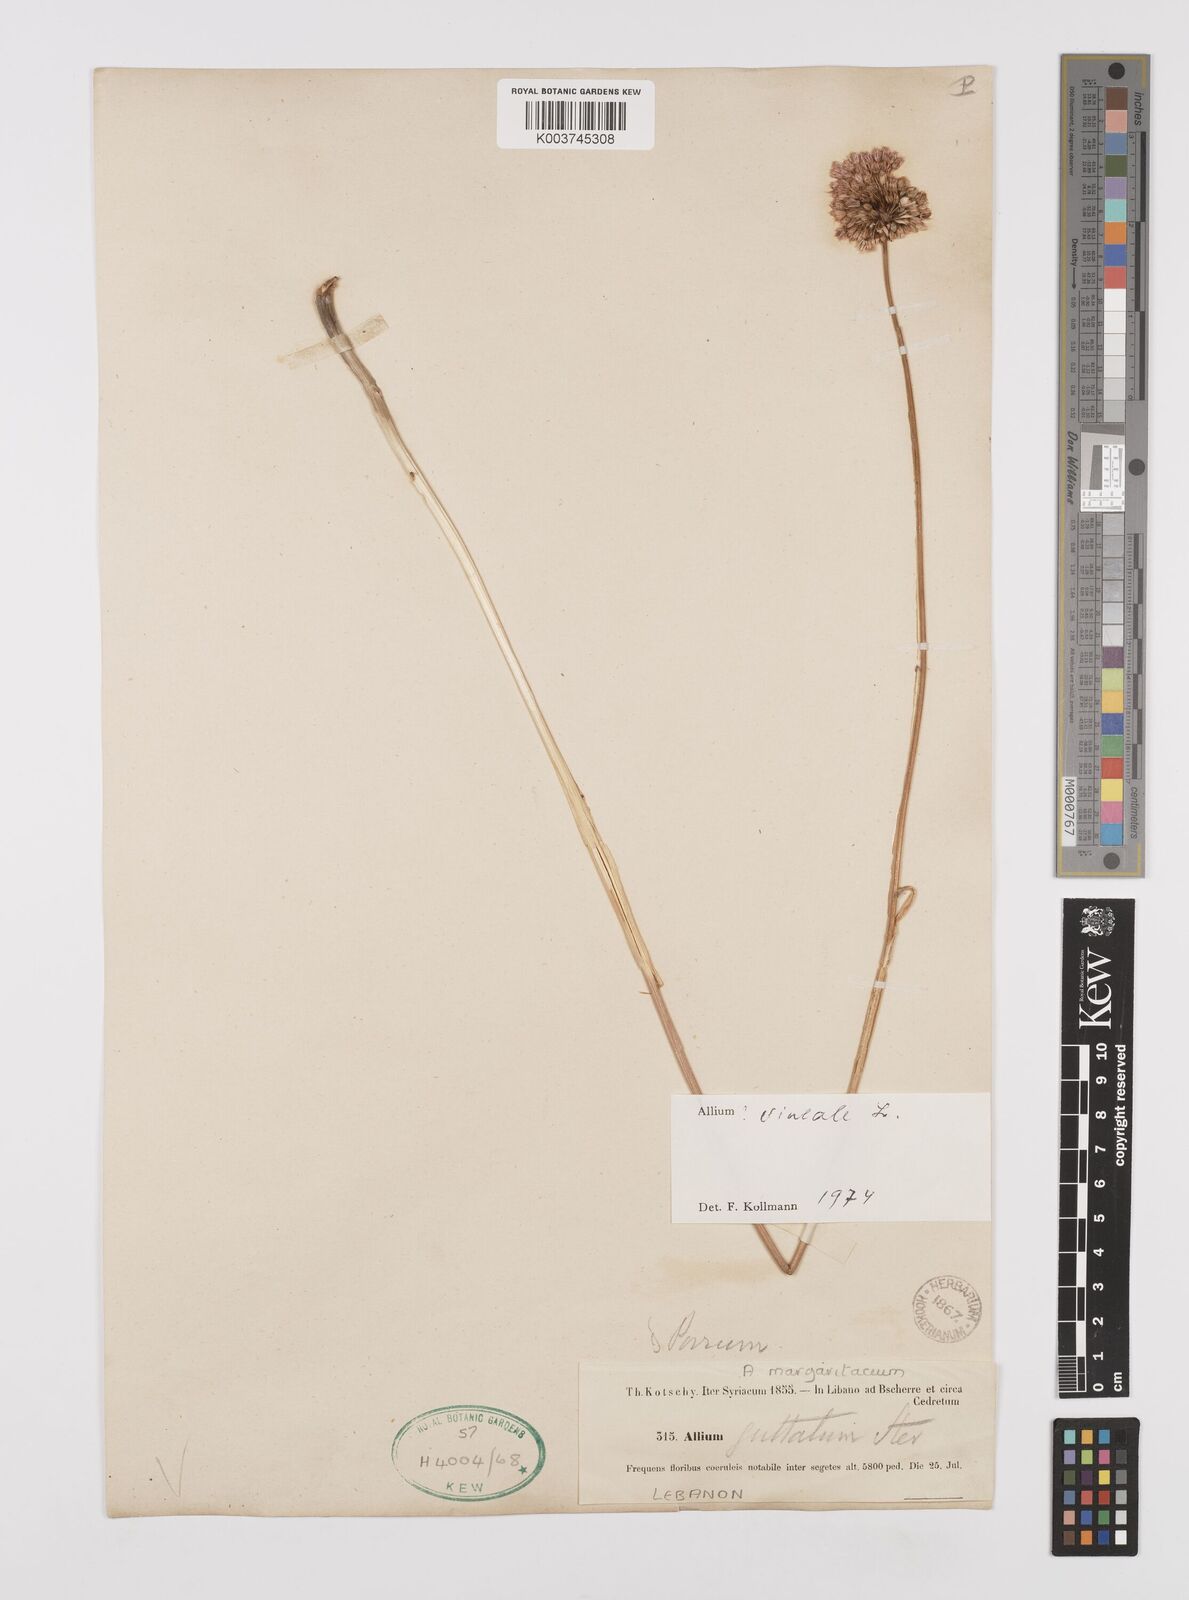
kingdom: Plantae
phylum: Tracheophyta
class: Liliopsida
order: Asparagales
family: Amaryllidaceae
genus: Allium
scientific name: Allium vineale
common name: Crow garlic
